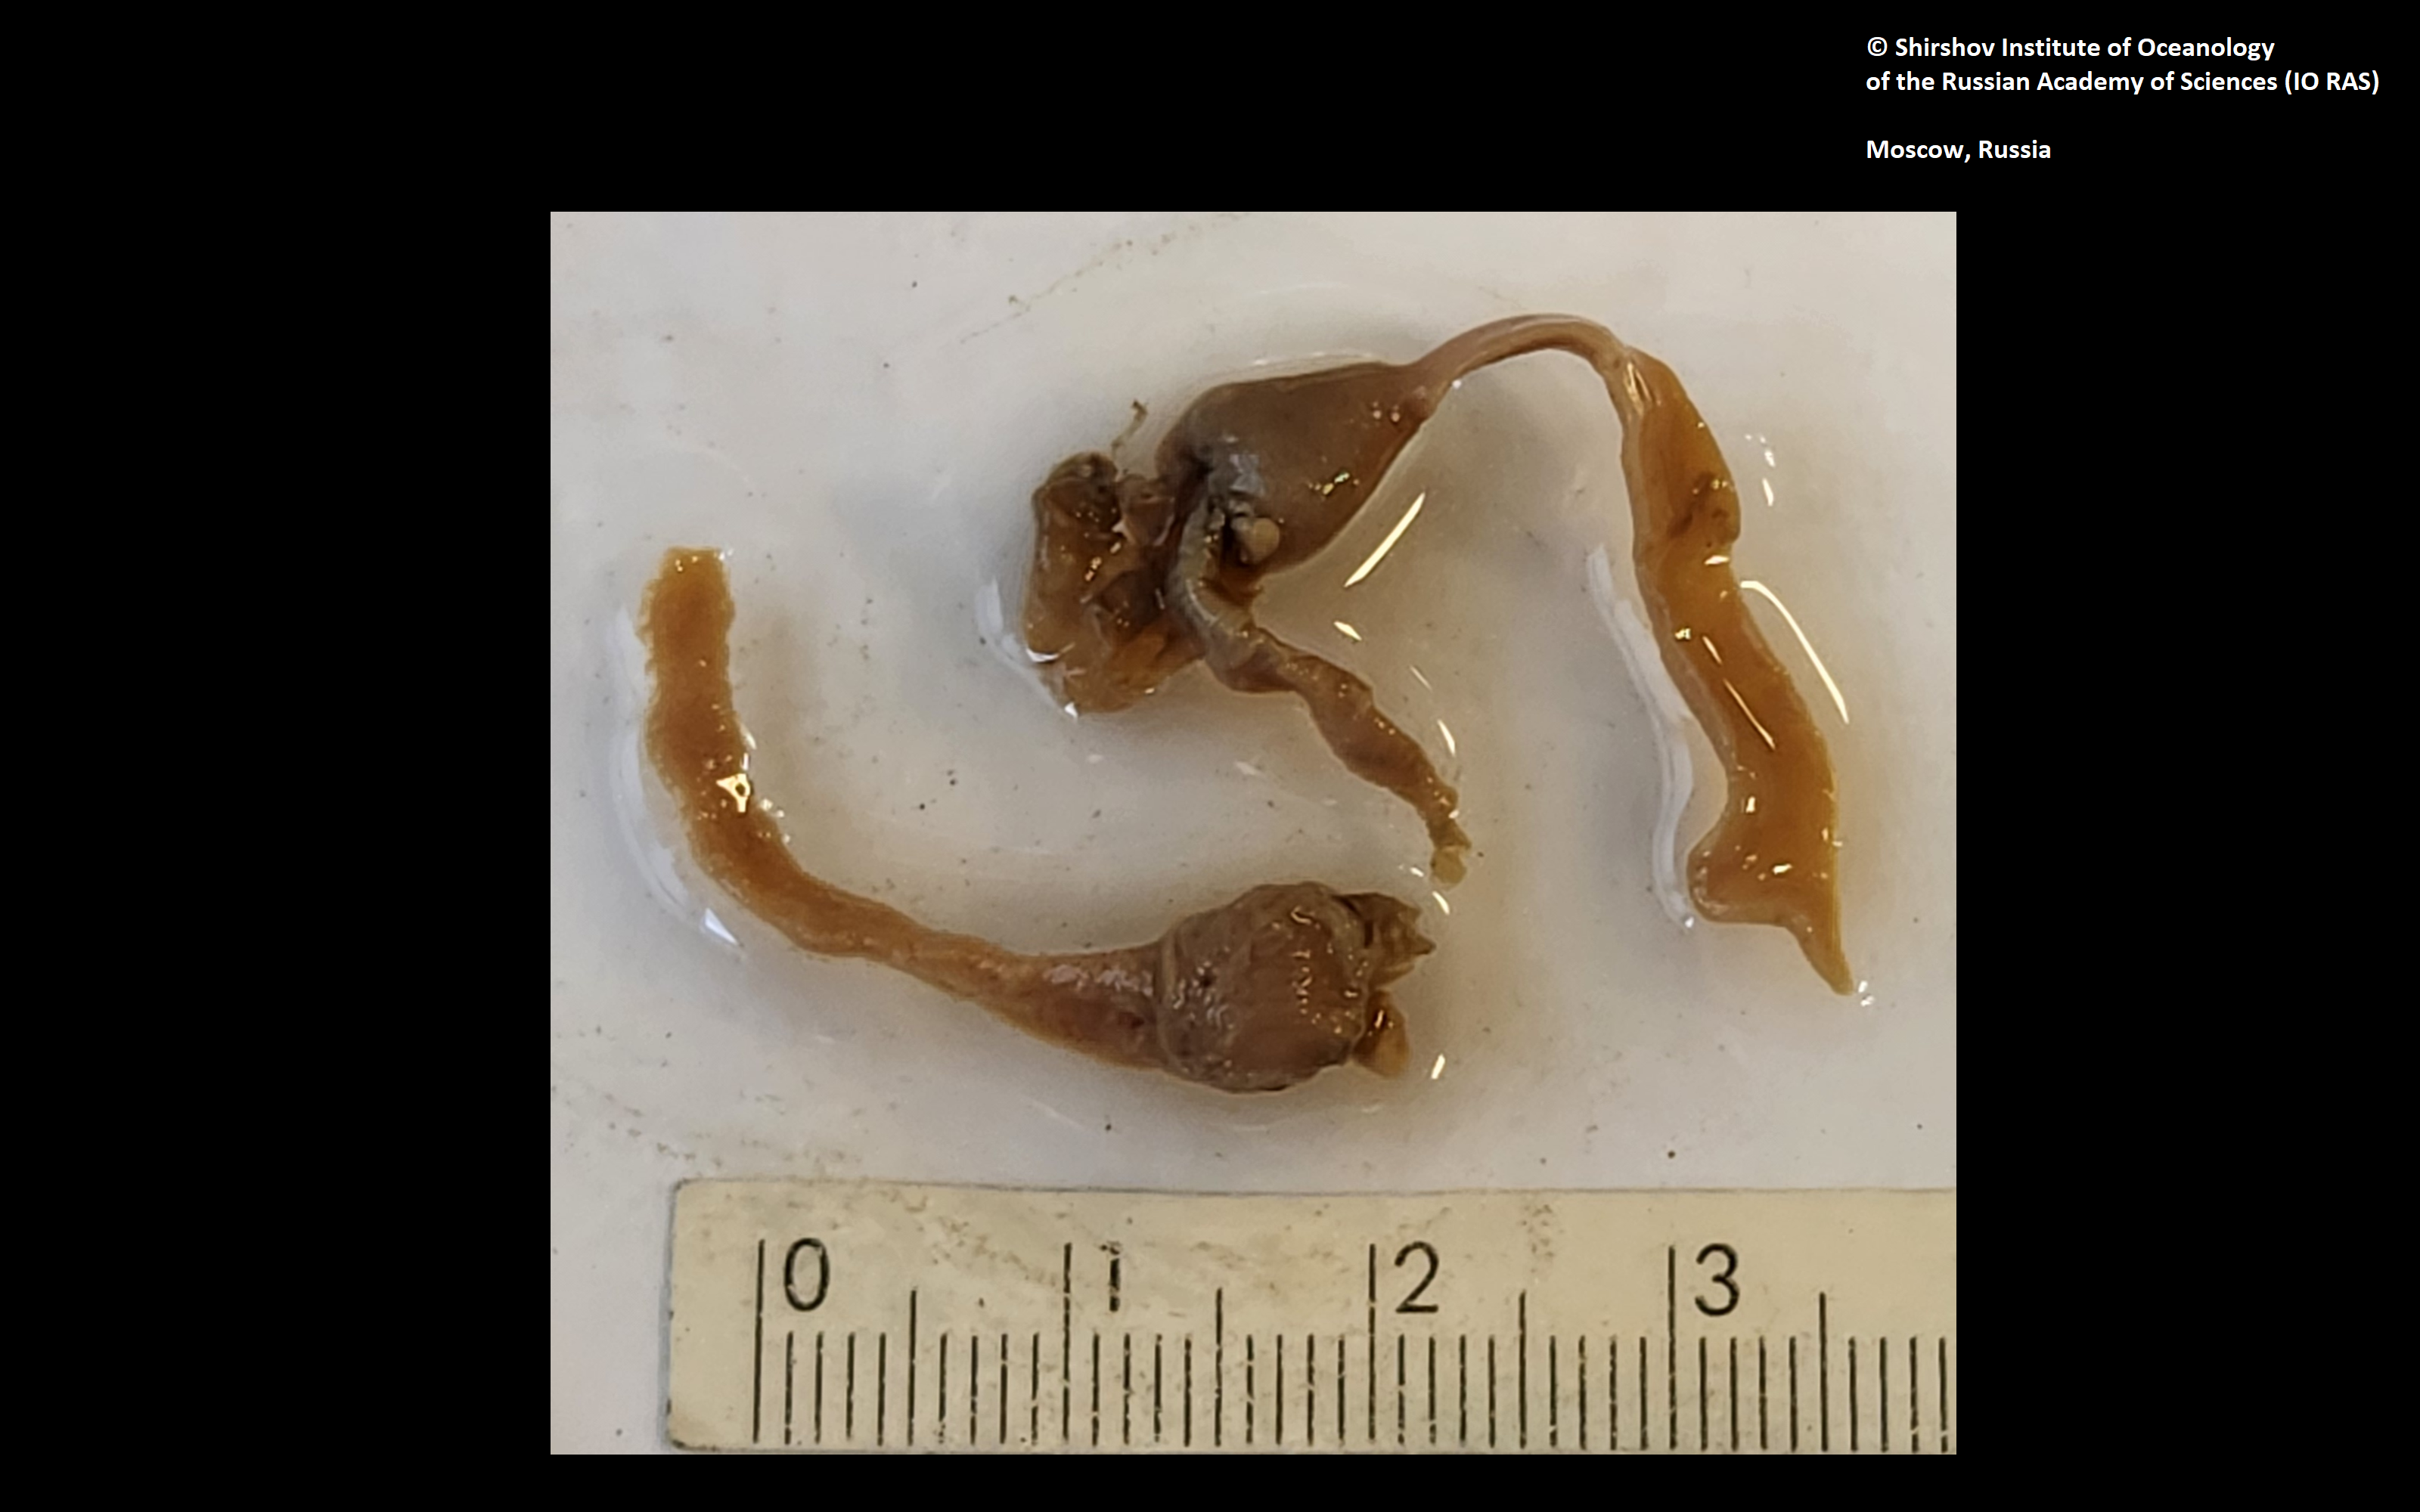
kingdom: Animalia
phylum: Annelida
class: Polychaeta
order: Echiuroidea
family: Bonelliidae
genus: Alomasoma
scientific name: Alomasoma nordpacificum
